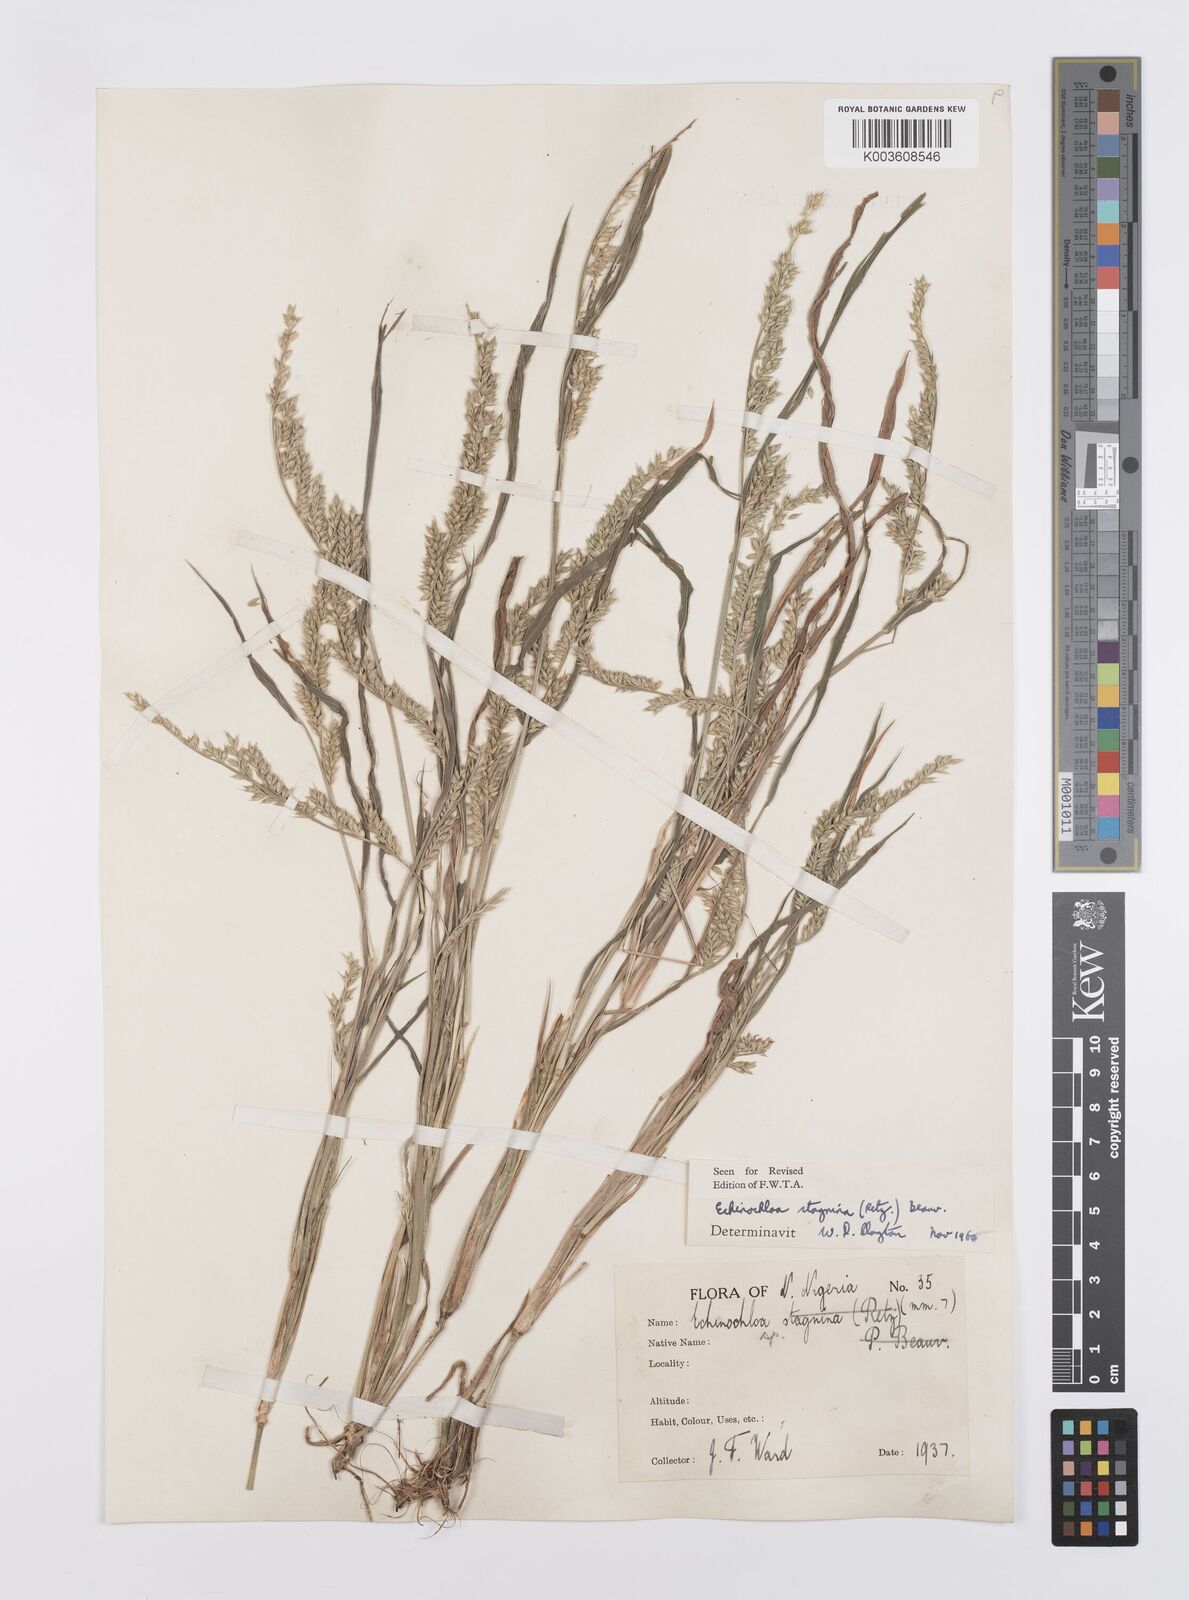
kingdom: Plantae
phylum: Tracheophyta
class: Liliopsida
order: Poales
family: Poaceae
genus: Echinochloa
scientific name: Echinochloa stagnina
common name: Burgu grass
